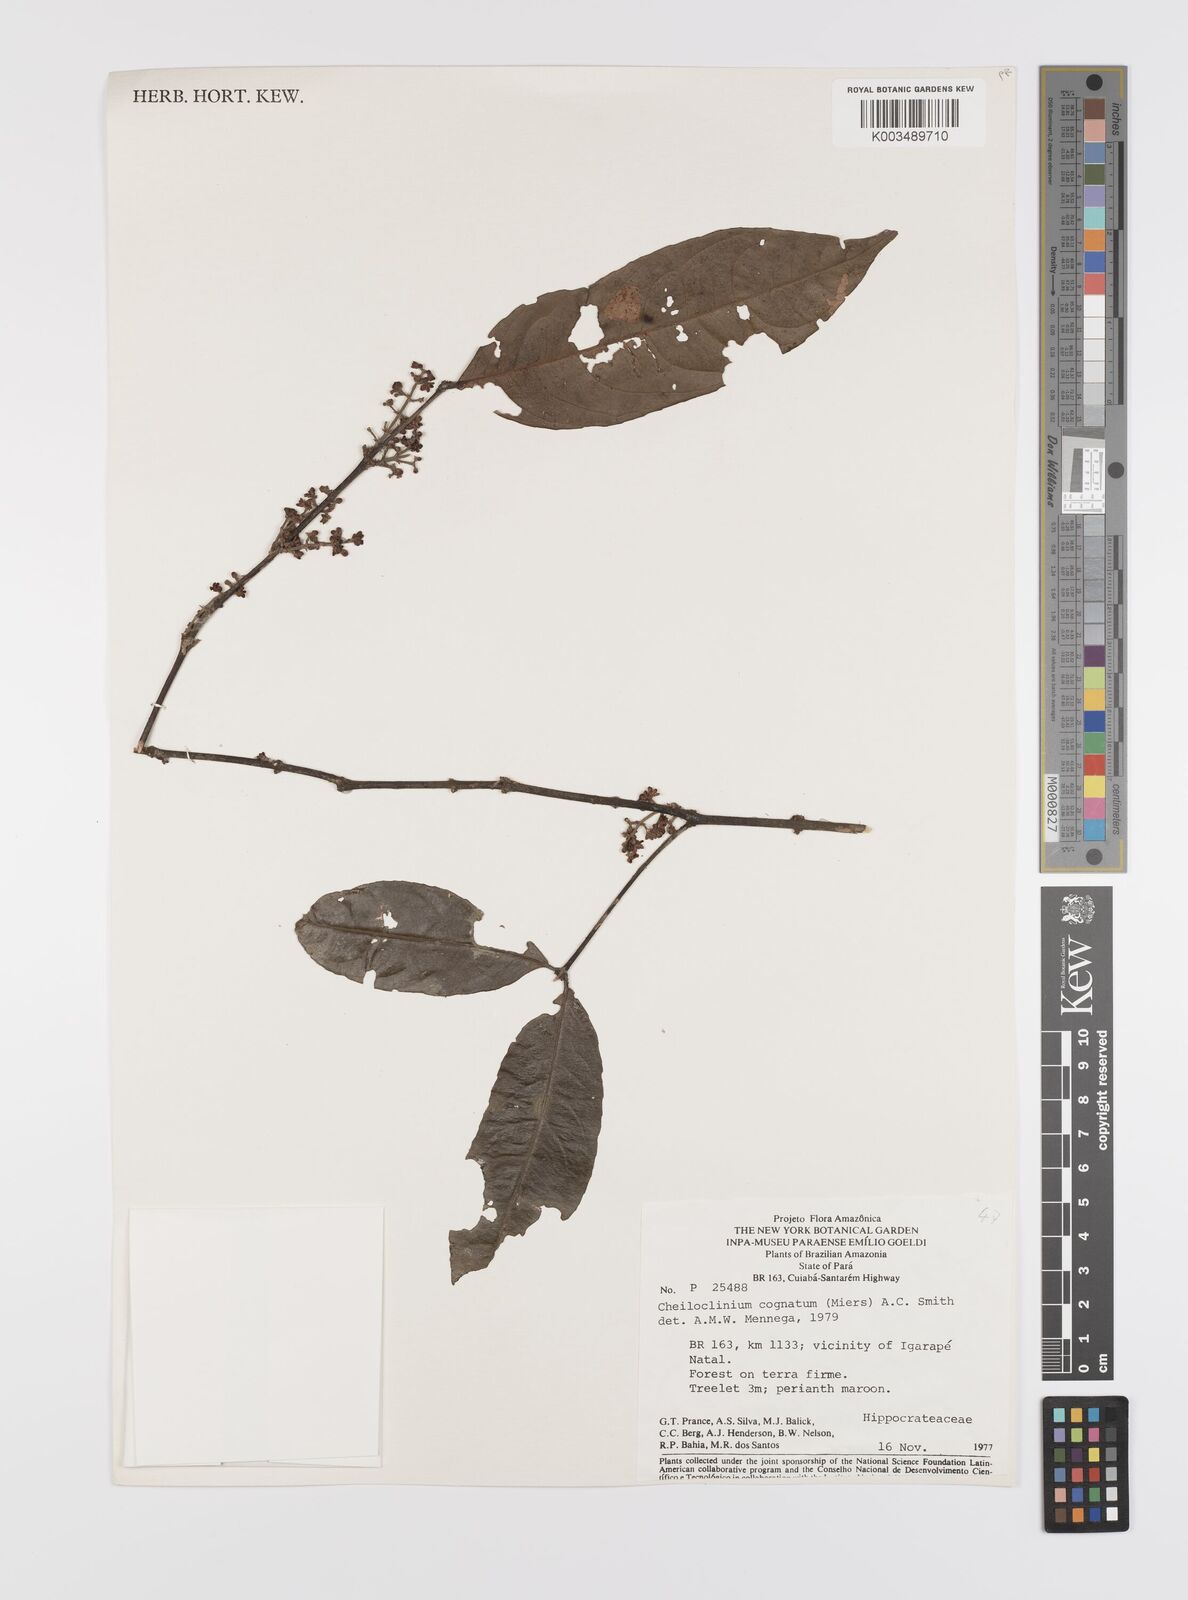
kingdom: Plantae
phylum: Tracheophyta
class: Magnoliopsida
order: Celastrales
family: Celastraceae
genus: Cheiloclinium
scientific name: Cheiloclinium cognatum
